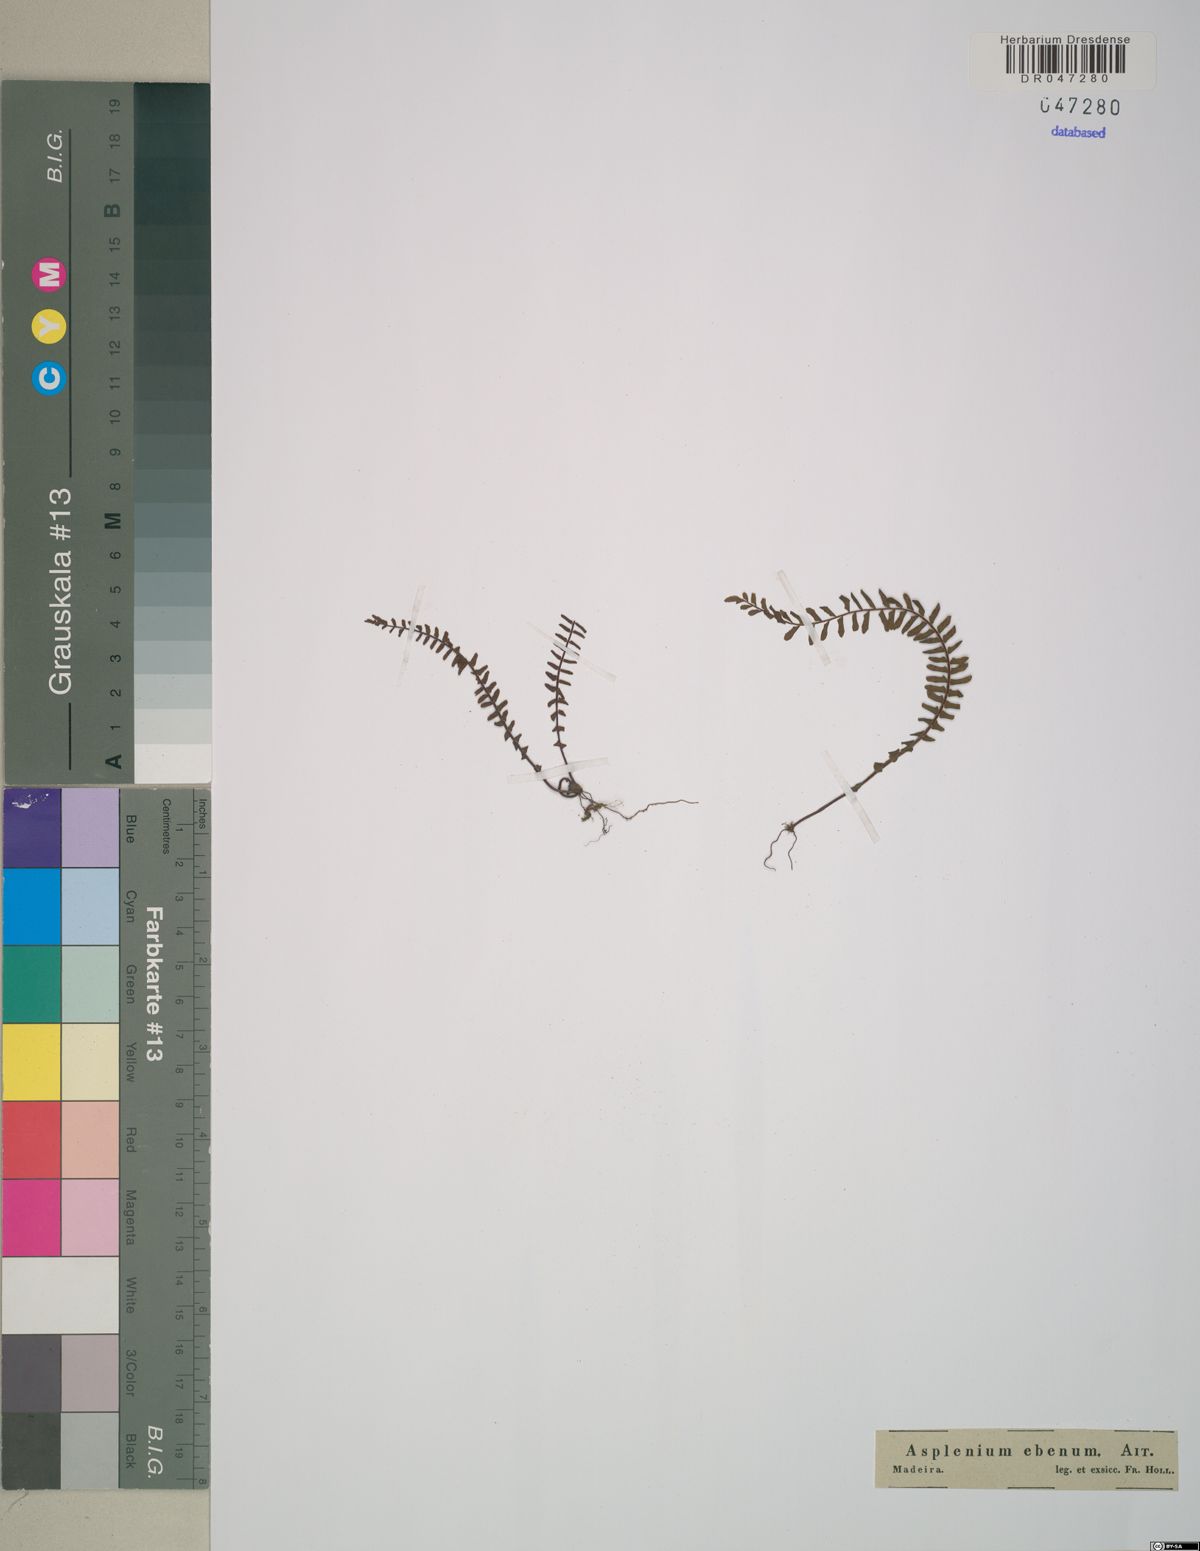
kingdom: Plantae
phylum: Tracheophyta
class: Polypodiopsida
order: Polypodiales
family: Aspleniaceae
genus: Asplenium
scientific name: Asplenium platyneuron
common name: Ebony spleenwort
